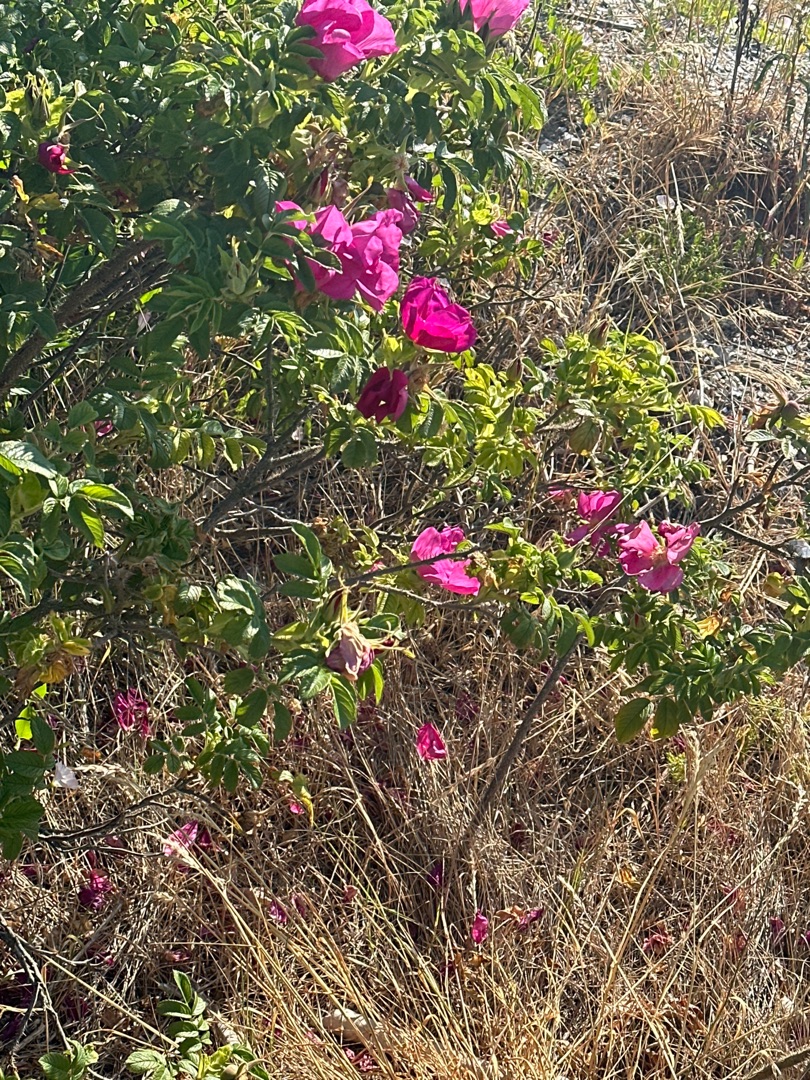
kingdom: Plantae
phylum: Tracheophyta
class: Magnoliopsida
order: Rosales
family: Rosaceae
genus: Rosa
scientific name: Rosa rugosa
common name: Rynket rose
